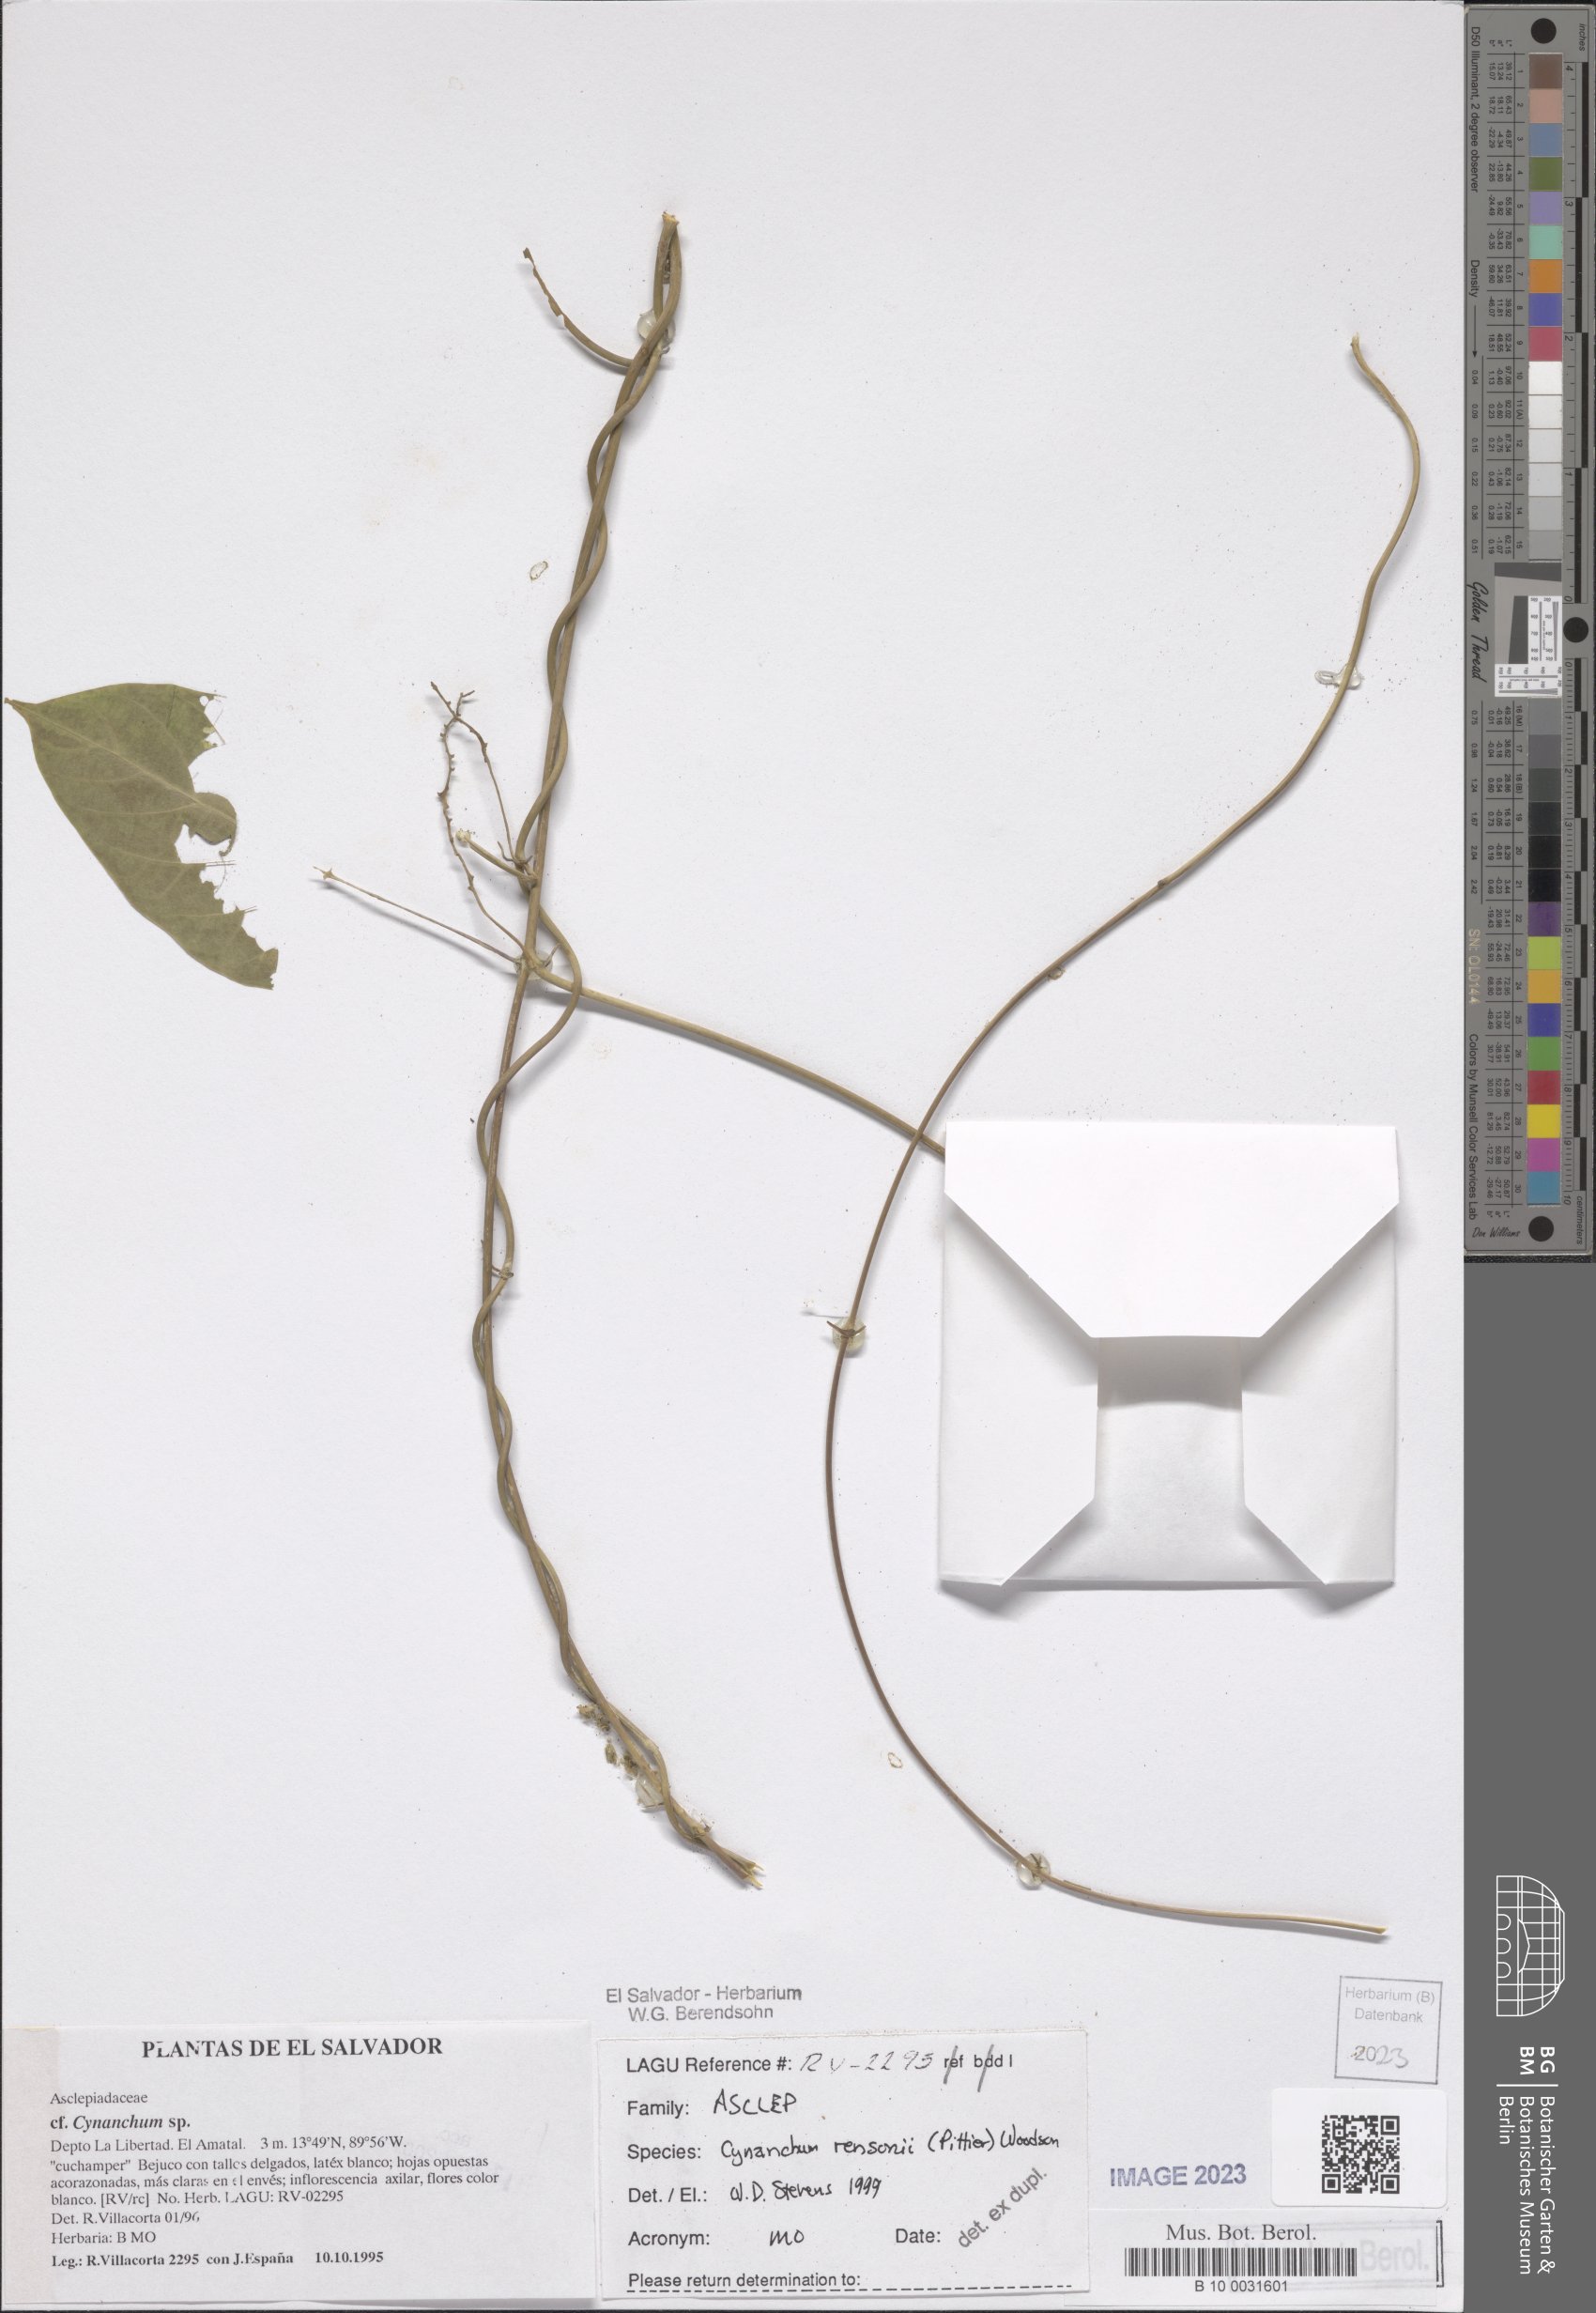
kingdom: Plantae
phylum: Tracheophyta
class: Magnoliopsida
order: Gentianales
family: Apocynaceae
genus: Cynanchum
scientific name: Cynanchum rensonii
